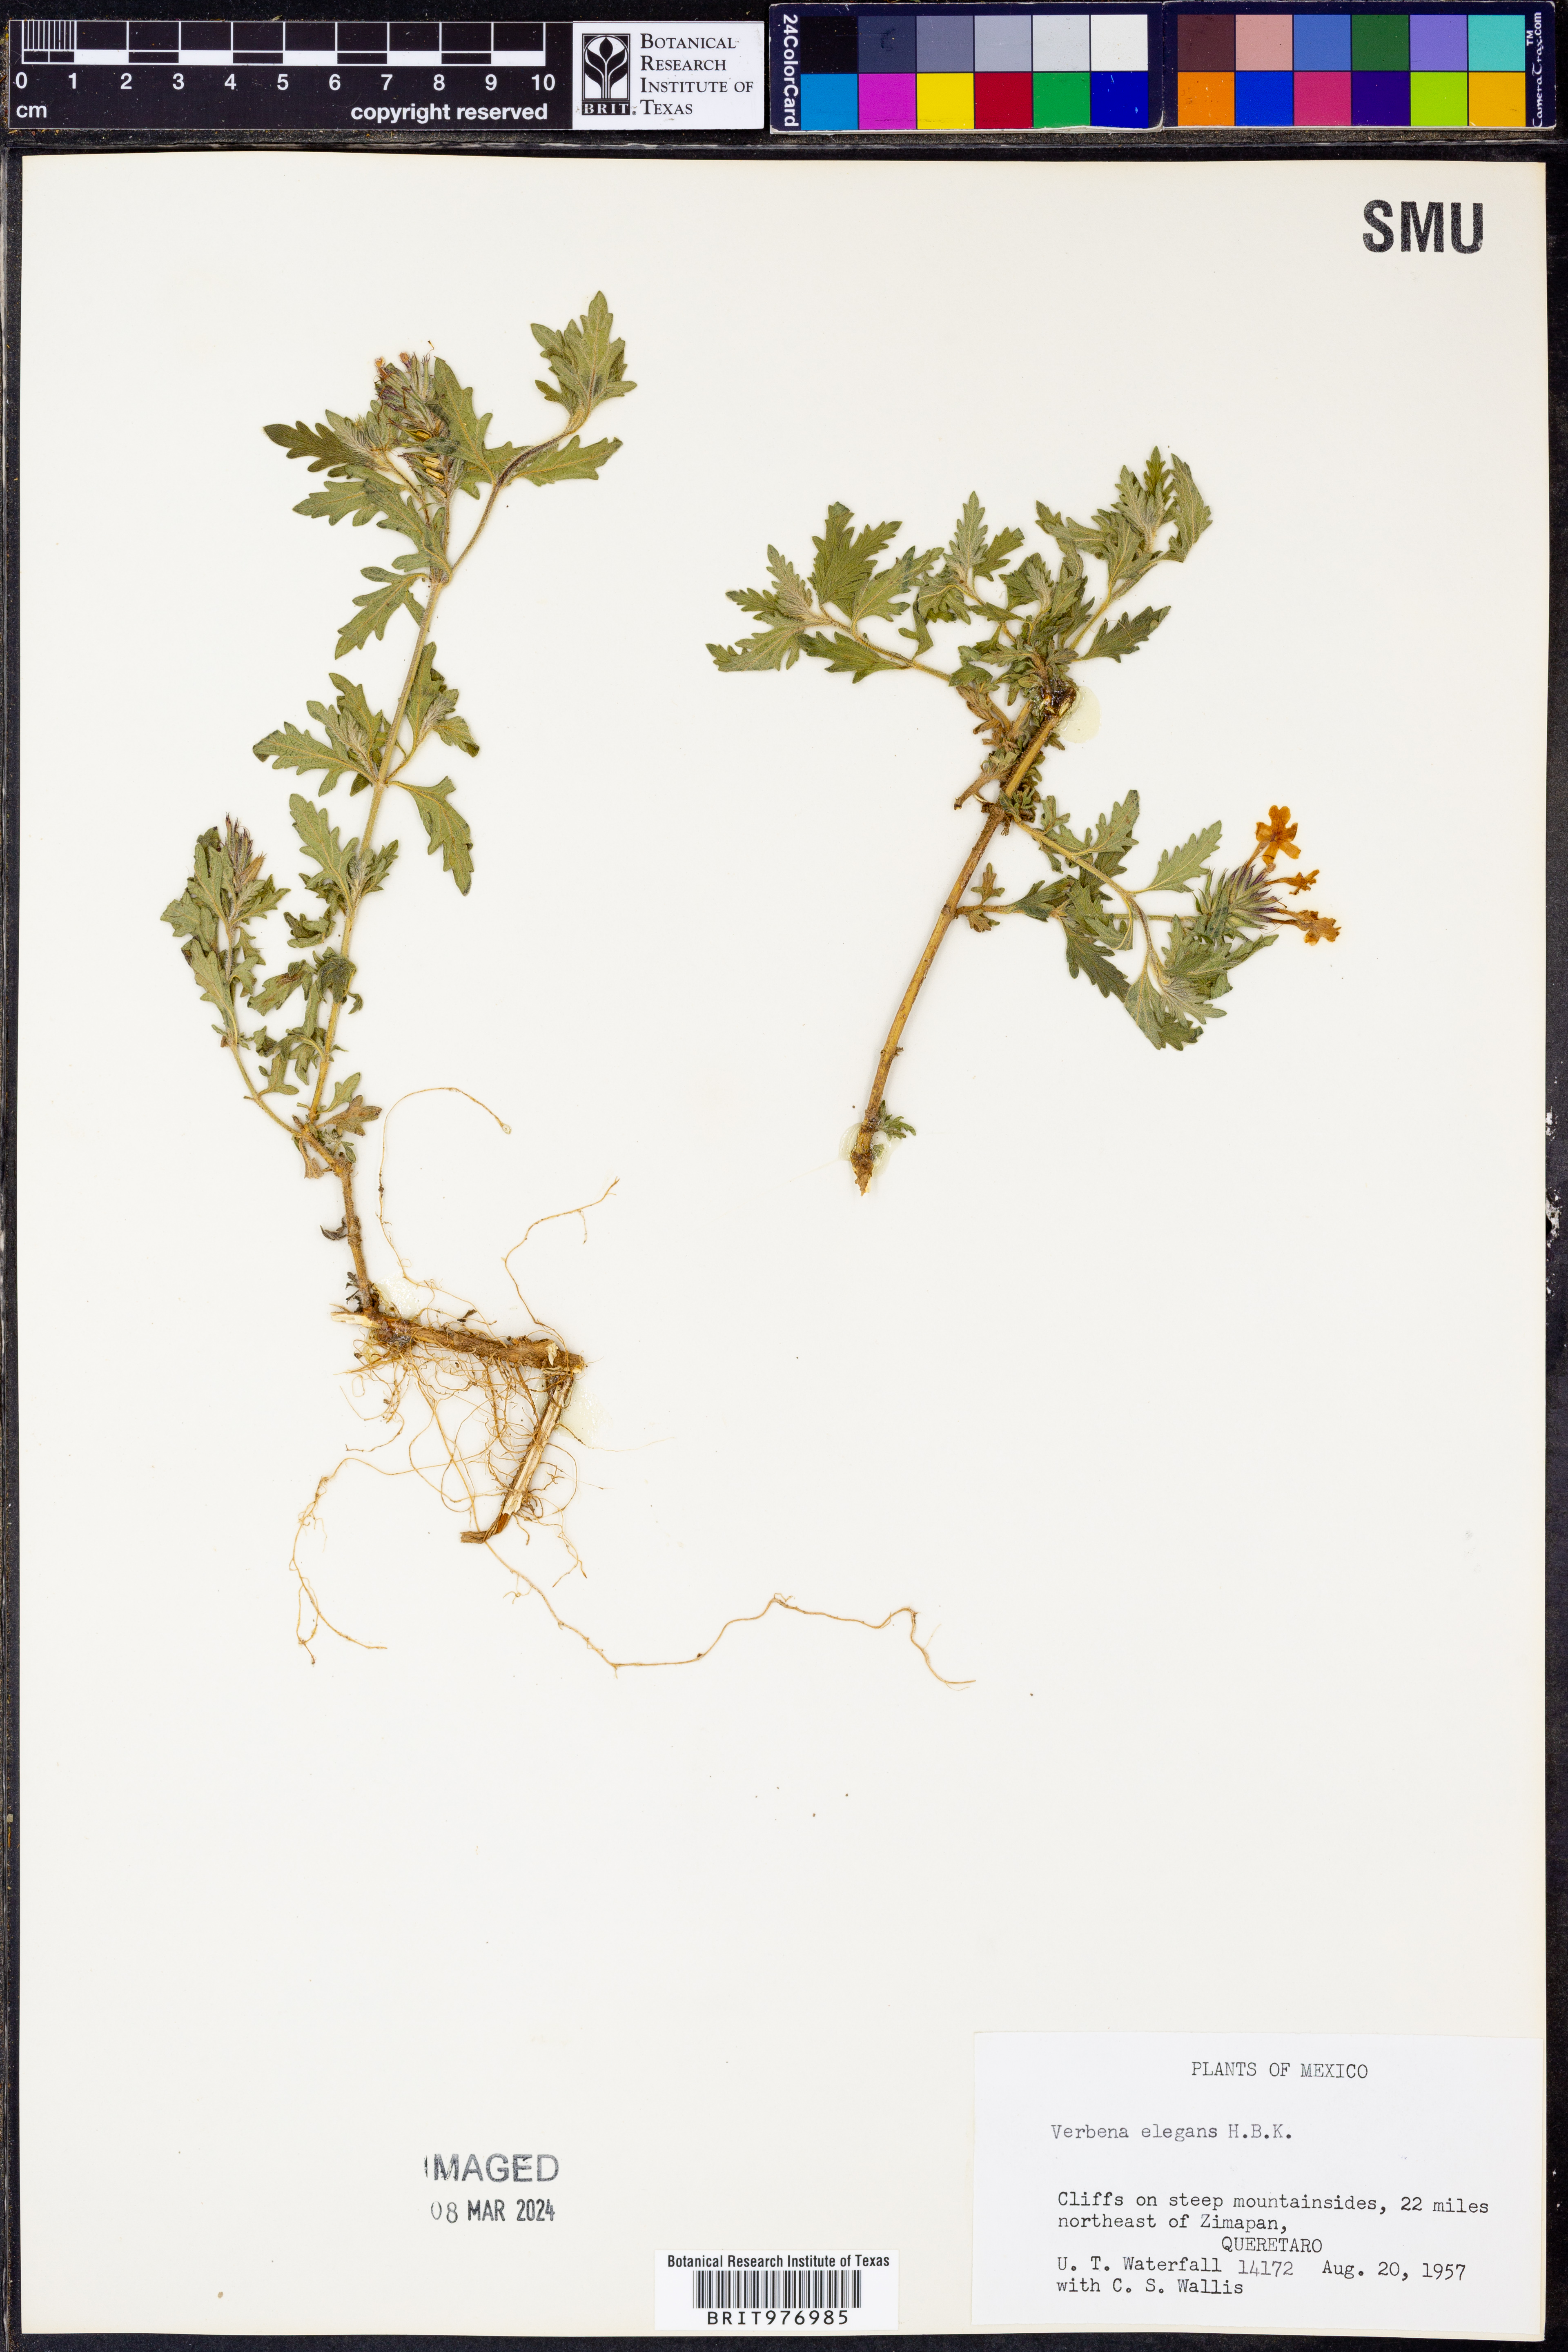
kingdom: Plantae
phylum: Tracheophyta
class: Magnoliopsida
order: Lamiales
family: Verbenaceae
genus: Verbena
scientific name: Verbena elegans
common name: Elegant vervain
